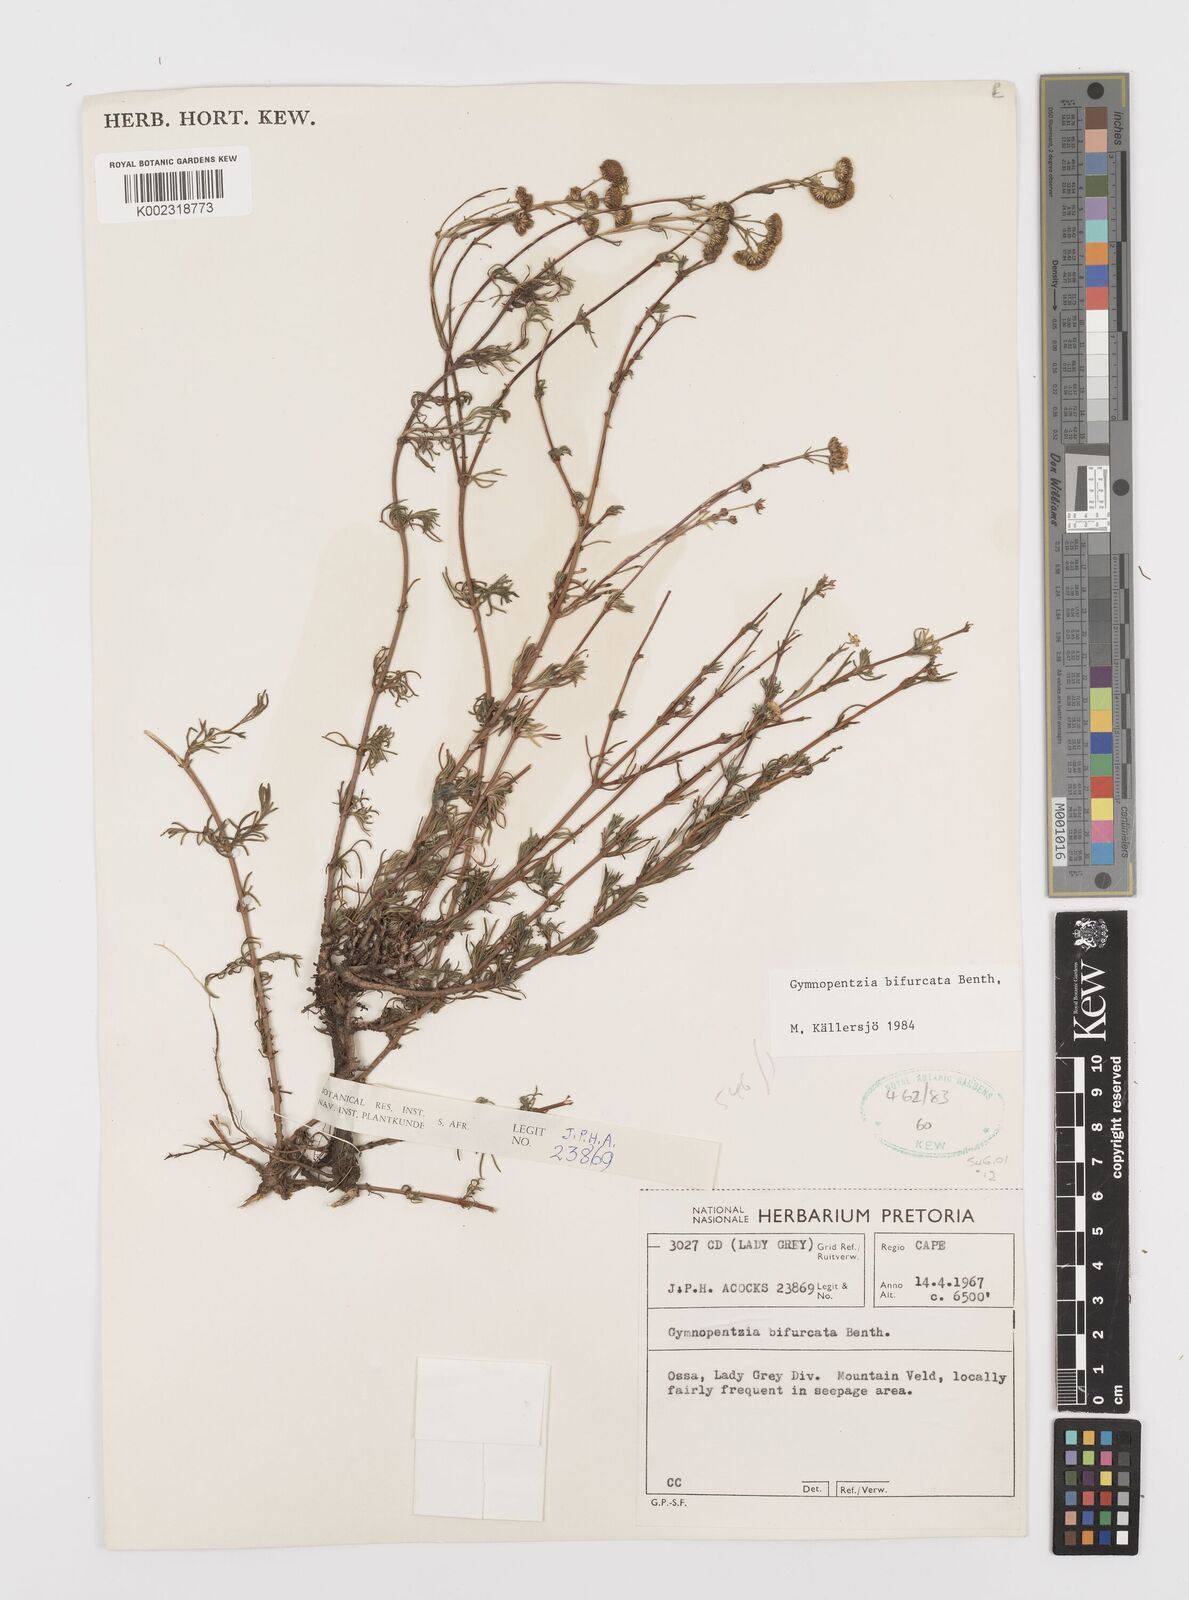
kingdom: Plantae
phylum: Tracheophyta
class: Magnoliopsida
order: Asterales
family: Asteraceae
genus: Gymnopentzia
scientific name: Gymnopentzia bifurcata
